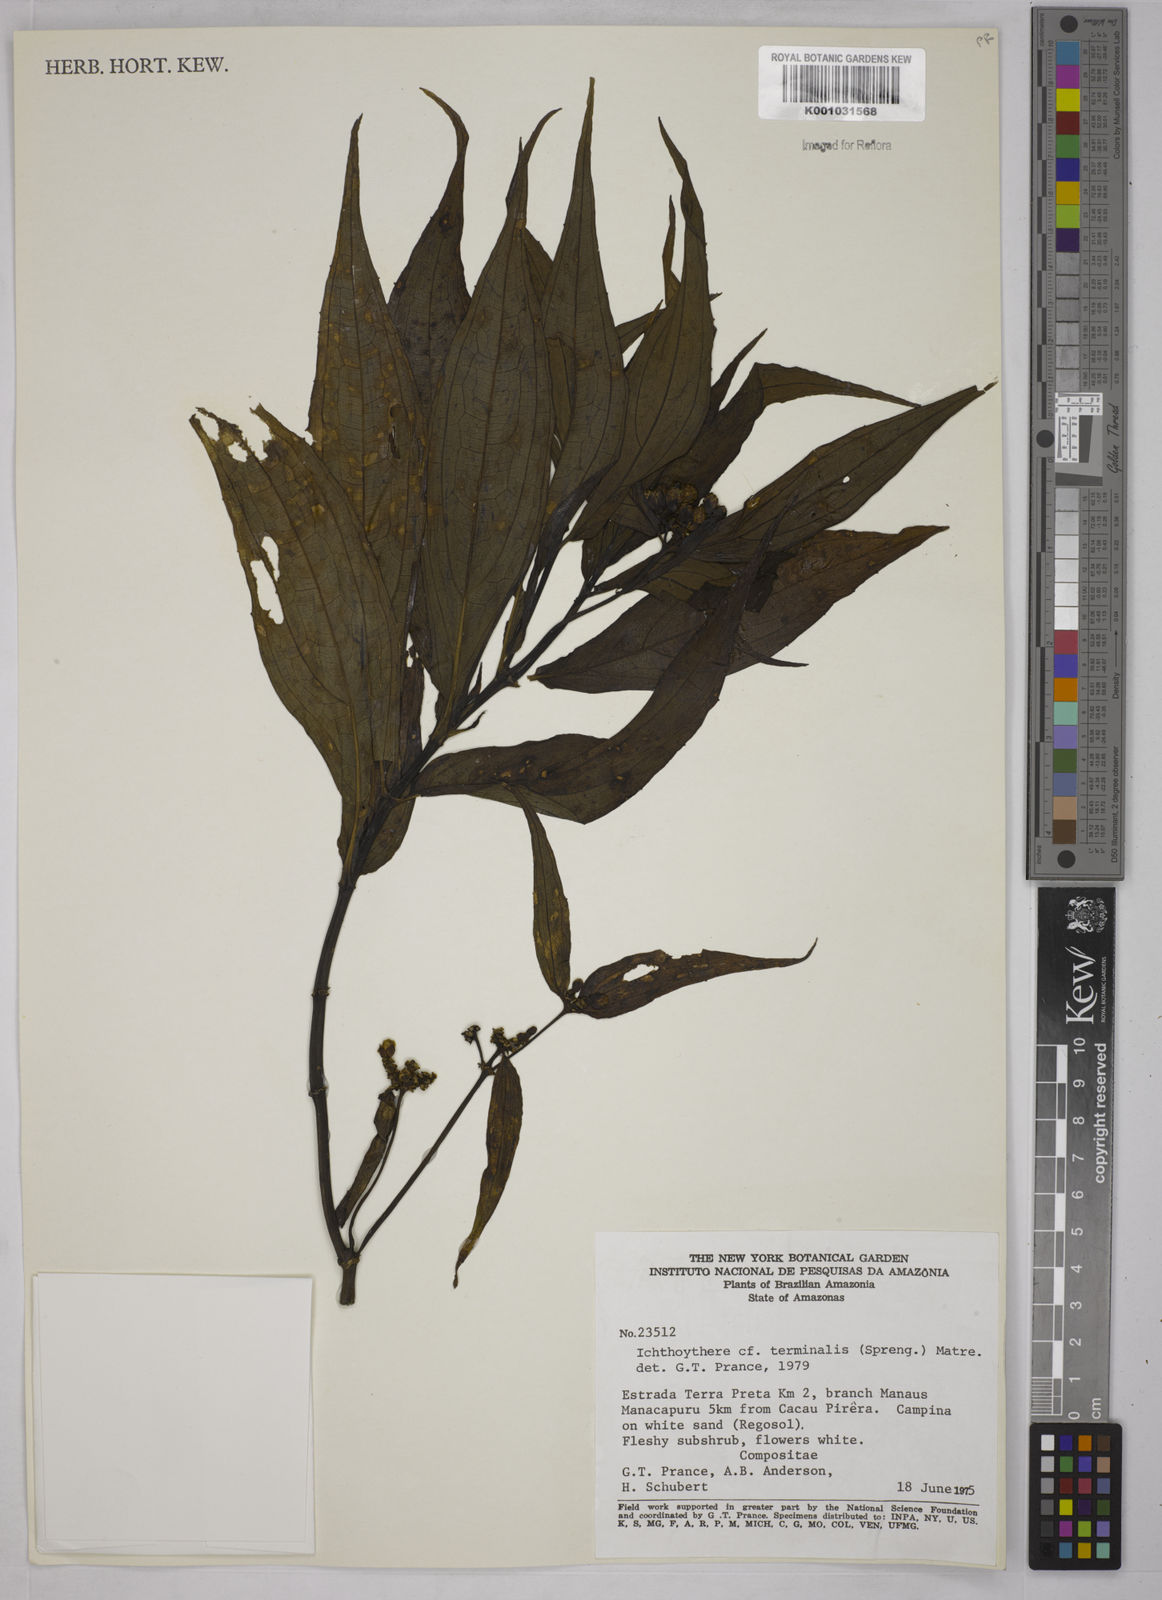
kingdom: Plantae
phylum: Tracheophyta
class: Magnoliopsida
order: Asterales
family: Asteraceae
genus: Ichthyothere
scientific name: Ichthyothere cunabi
